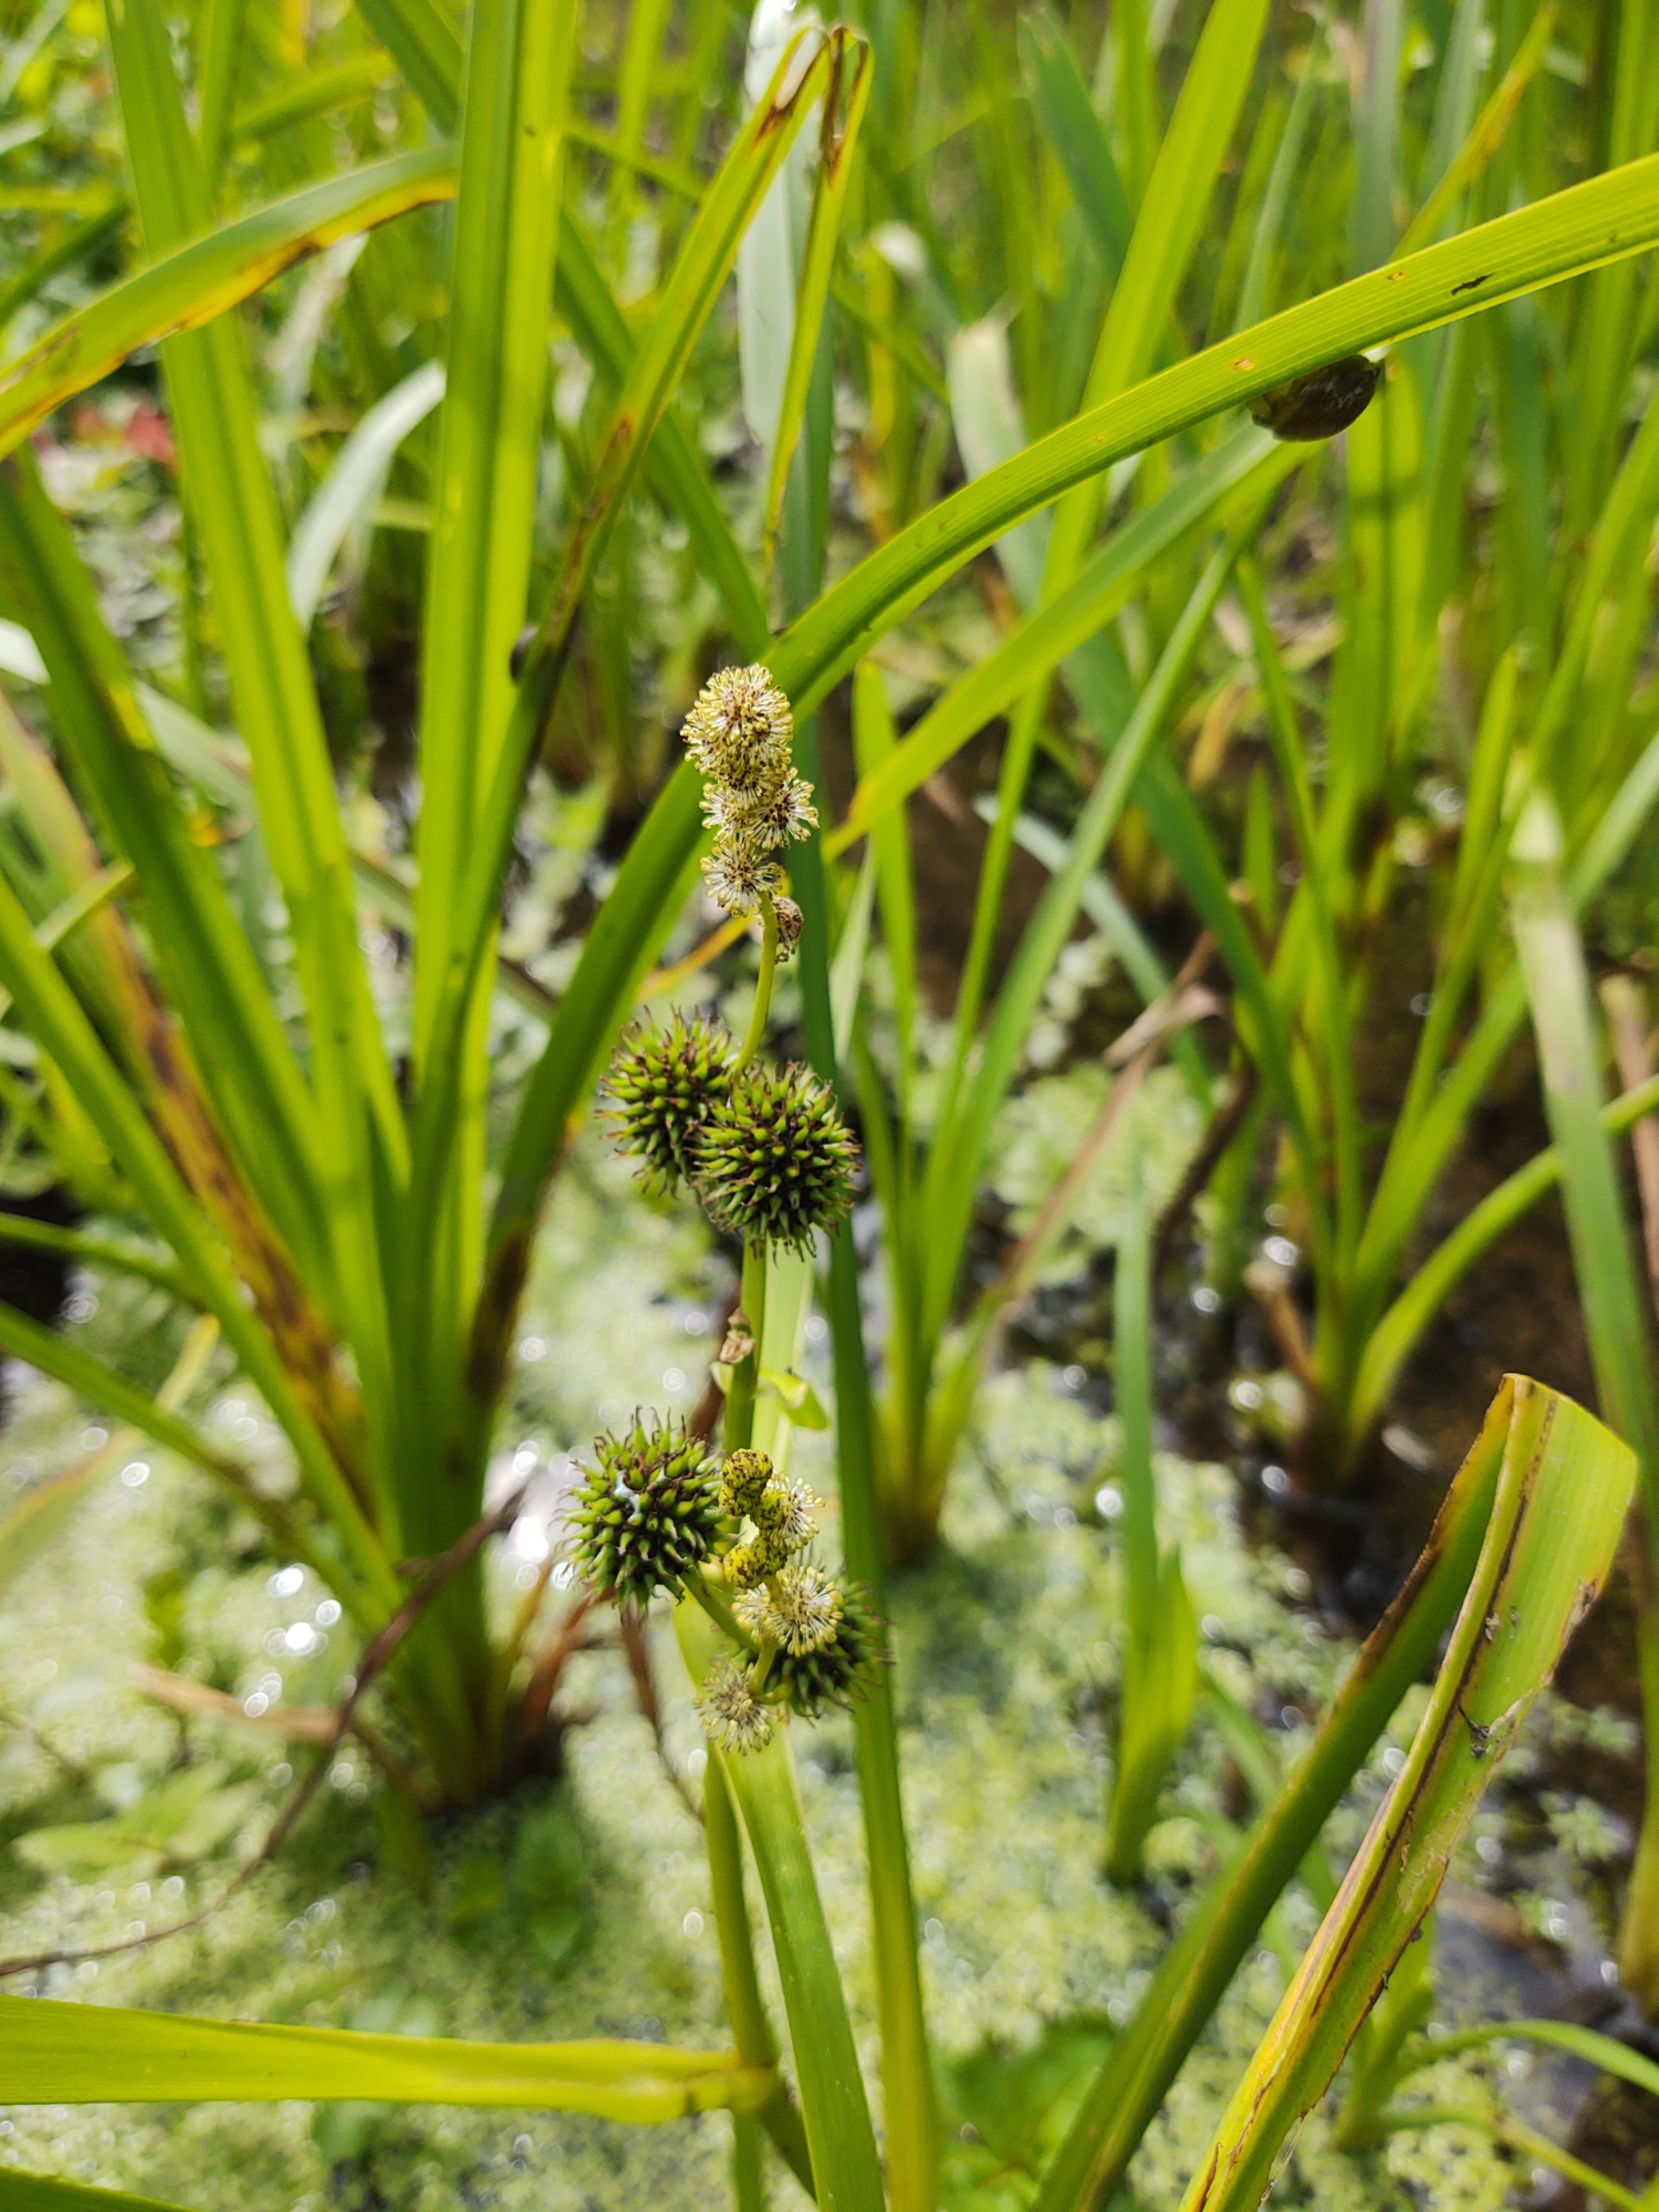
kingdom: Plantae
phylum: Tracheophyta
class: Liliopsida
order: Poales
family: Typhaceae
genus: Sparganium
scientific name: Sparganium erectum
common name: Grenet pindsvineknop
